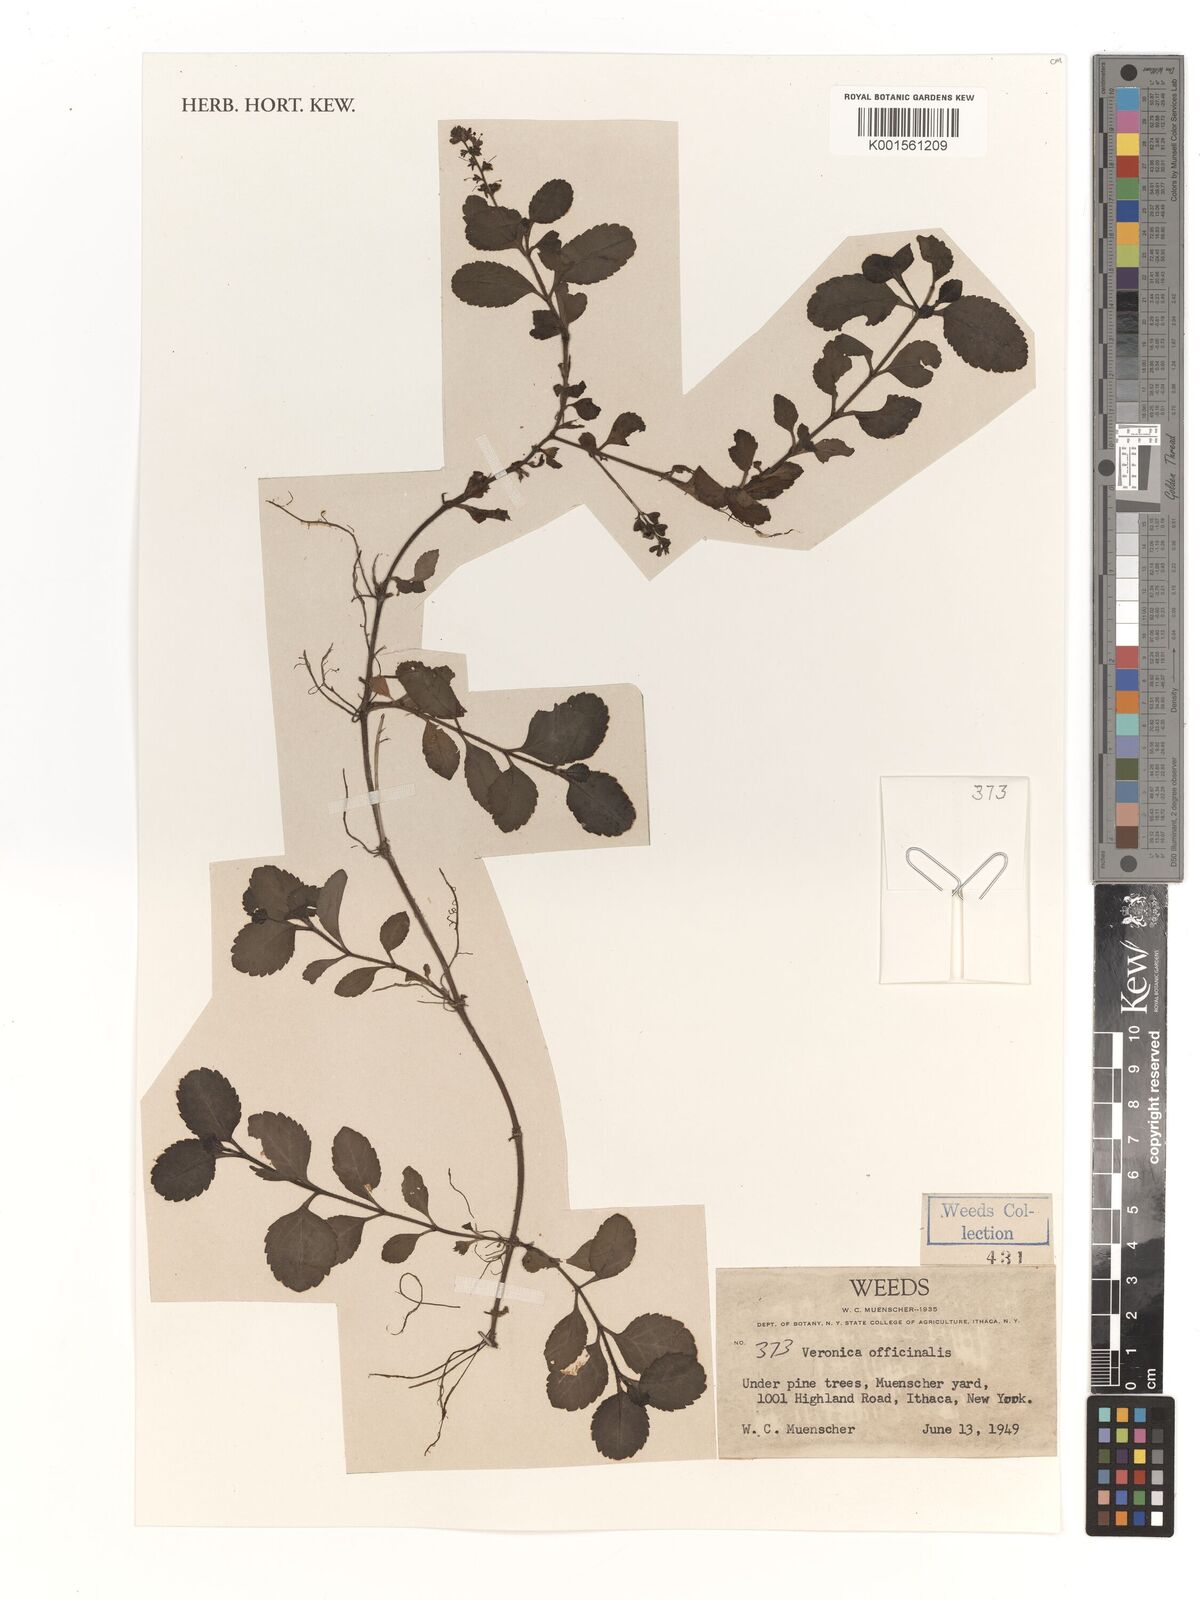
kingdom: Plantae
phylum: Tracheophyta
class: Magnoliopsida
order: Lamiales
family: Plantaginaceae
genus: Veronica
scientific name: Veronica officinalis
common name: Common speedwell
